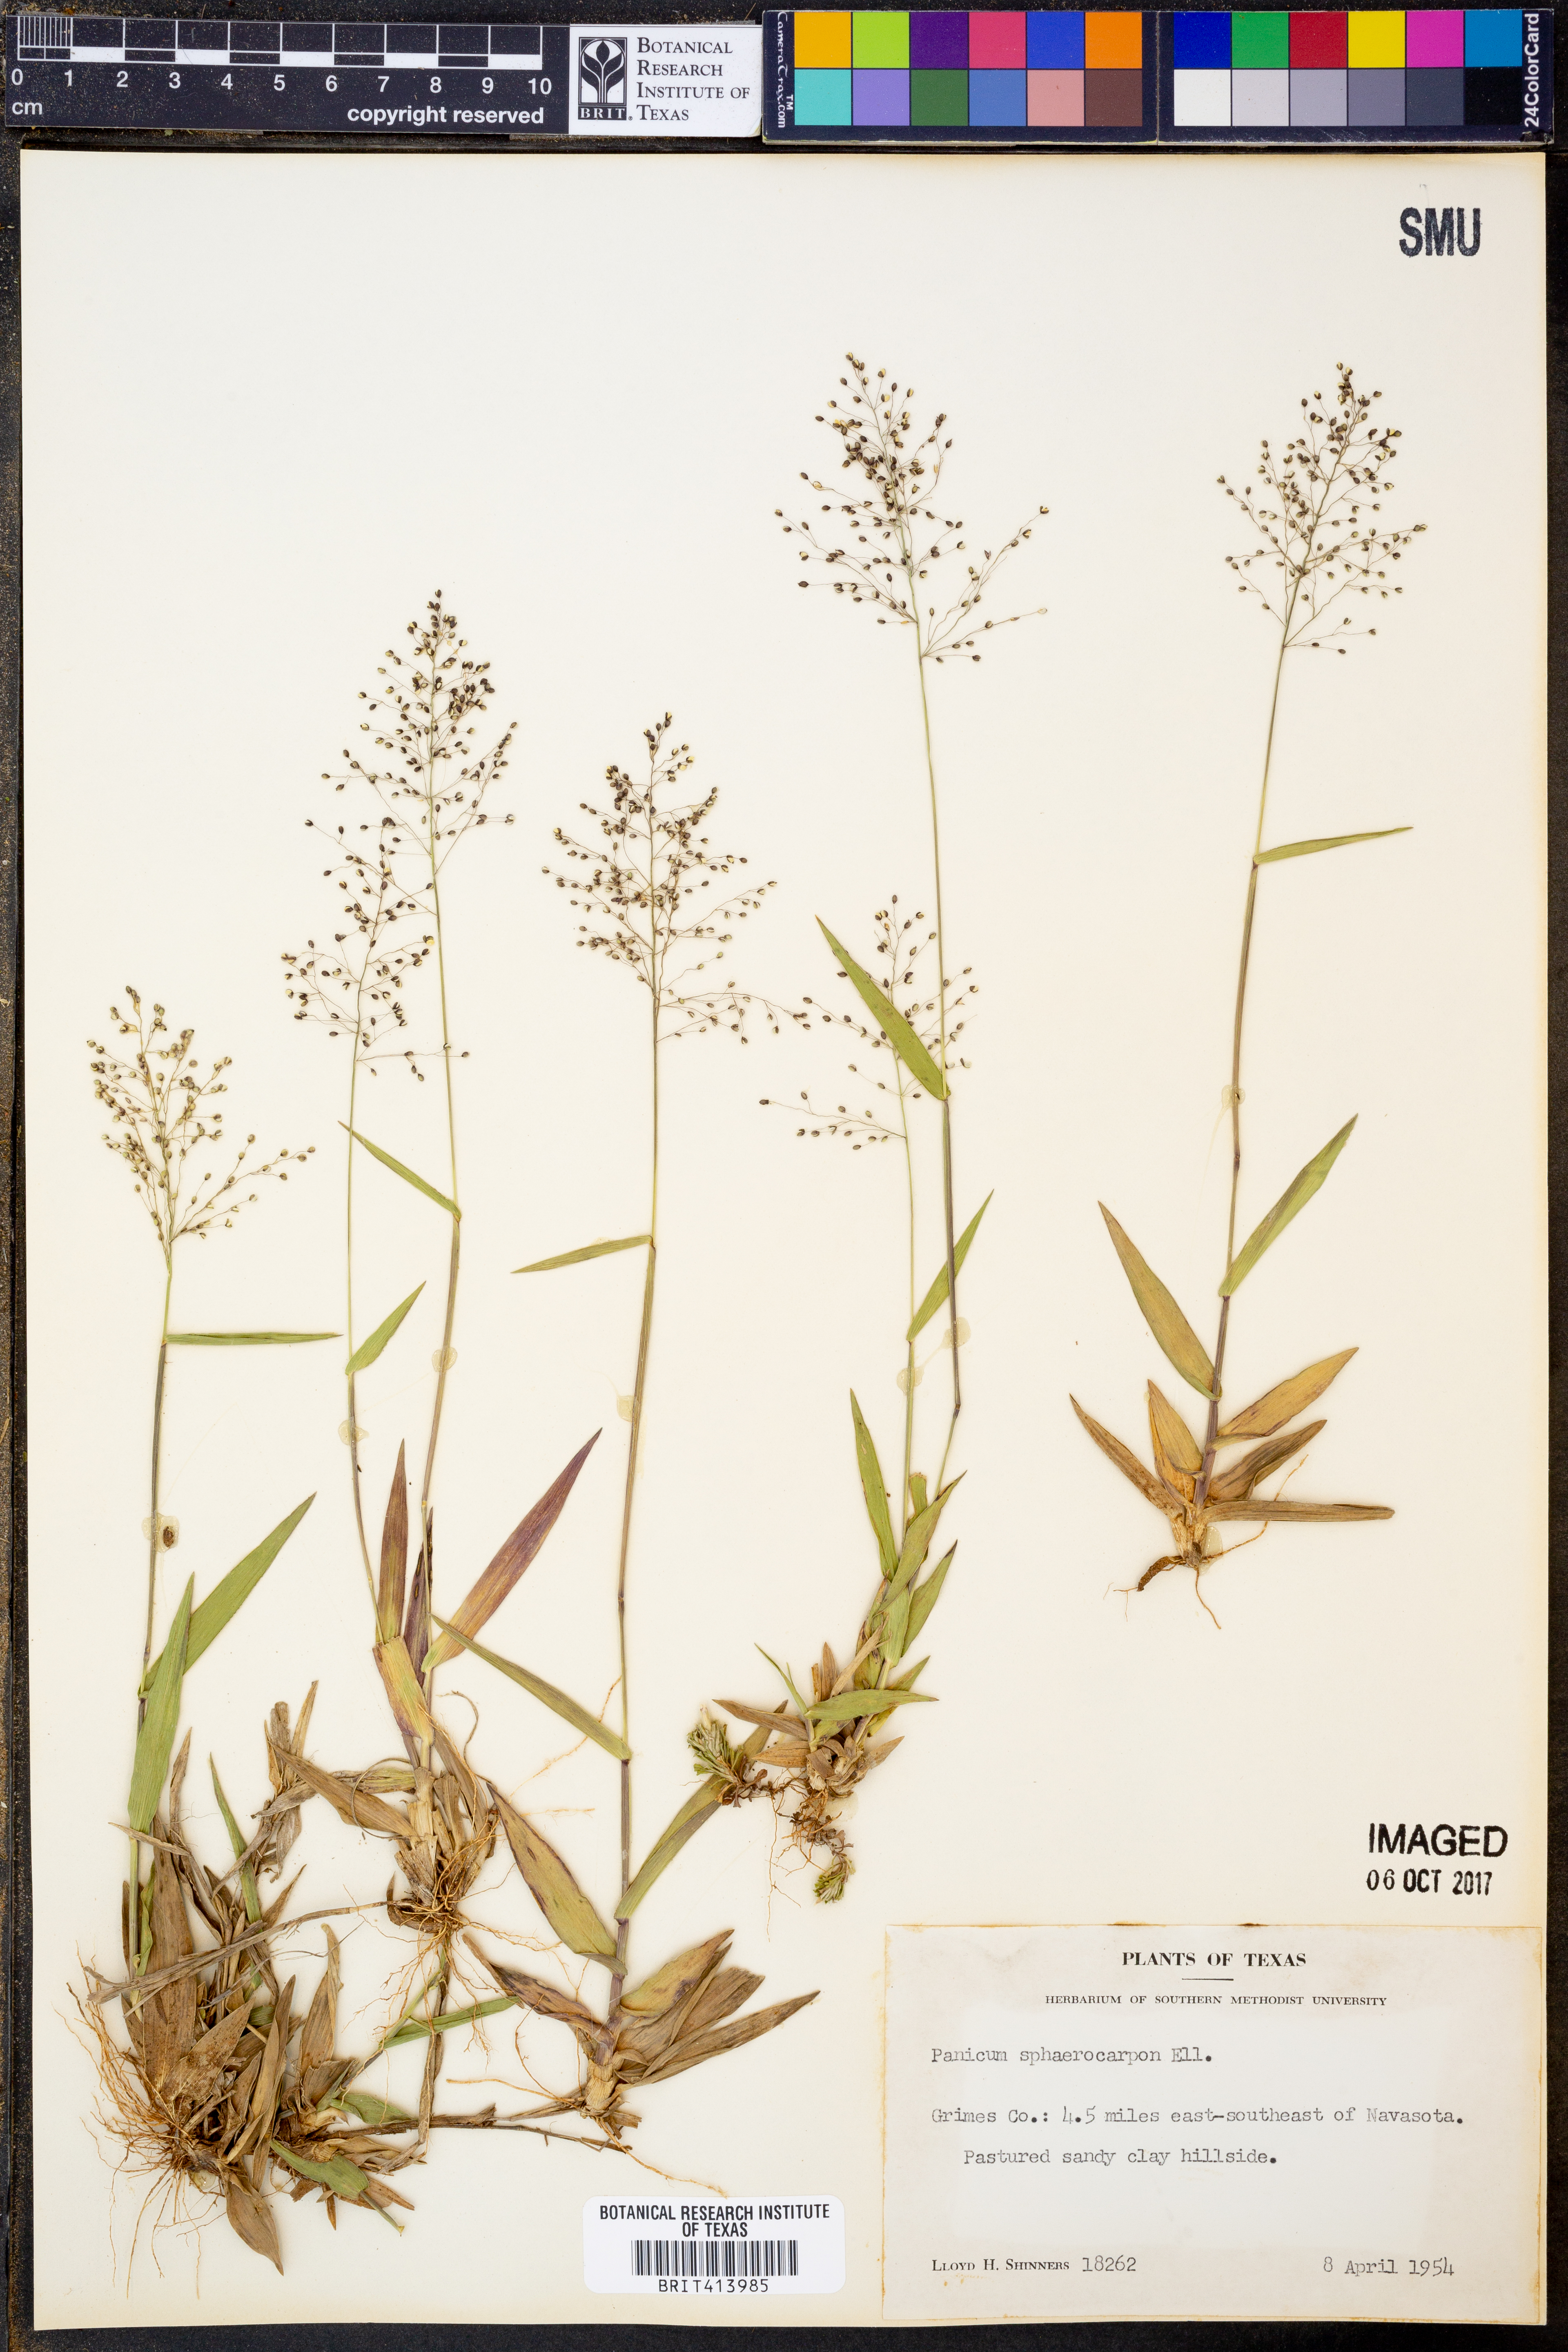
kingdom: Plantae
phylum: Tracheophyta
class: Liliopsida
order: Poales
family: Poaceae
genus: Dichanthelium
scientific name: Dichanthelium sphaerocarpon
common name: Round-fruited panicgrass
